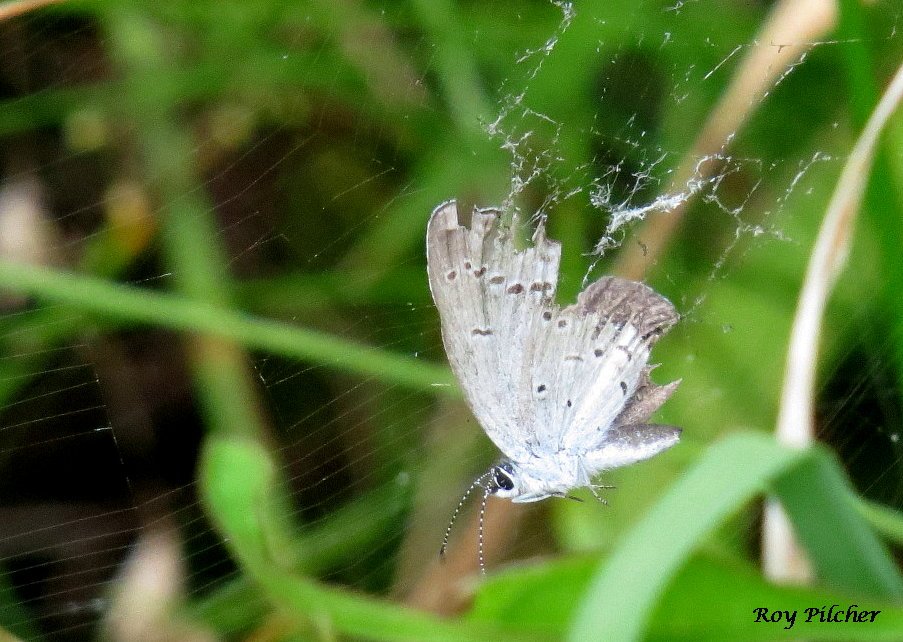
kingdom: Animalia
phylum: Arthropoda
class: Insecta
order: Lepidoptera
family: Lycaenidae
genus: Glaucopsyche
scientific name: Glaucopsyche lygdamus
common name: Silvery Blue
